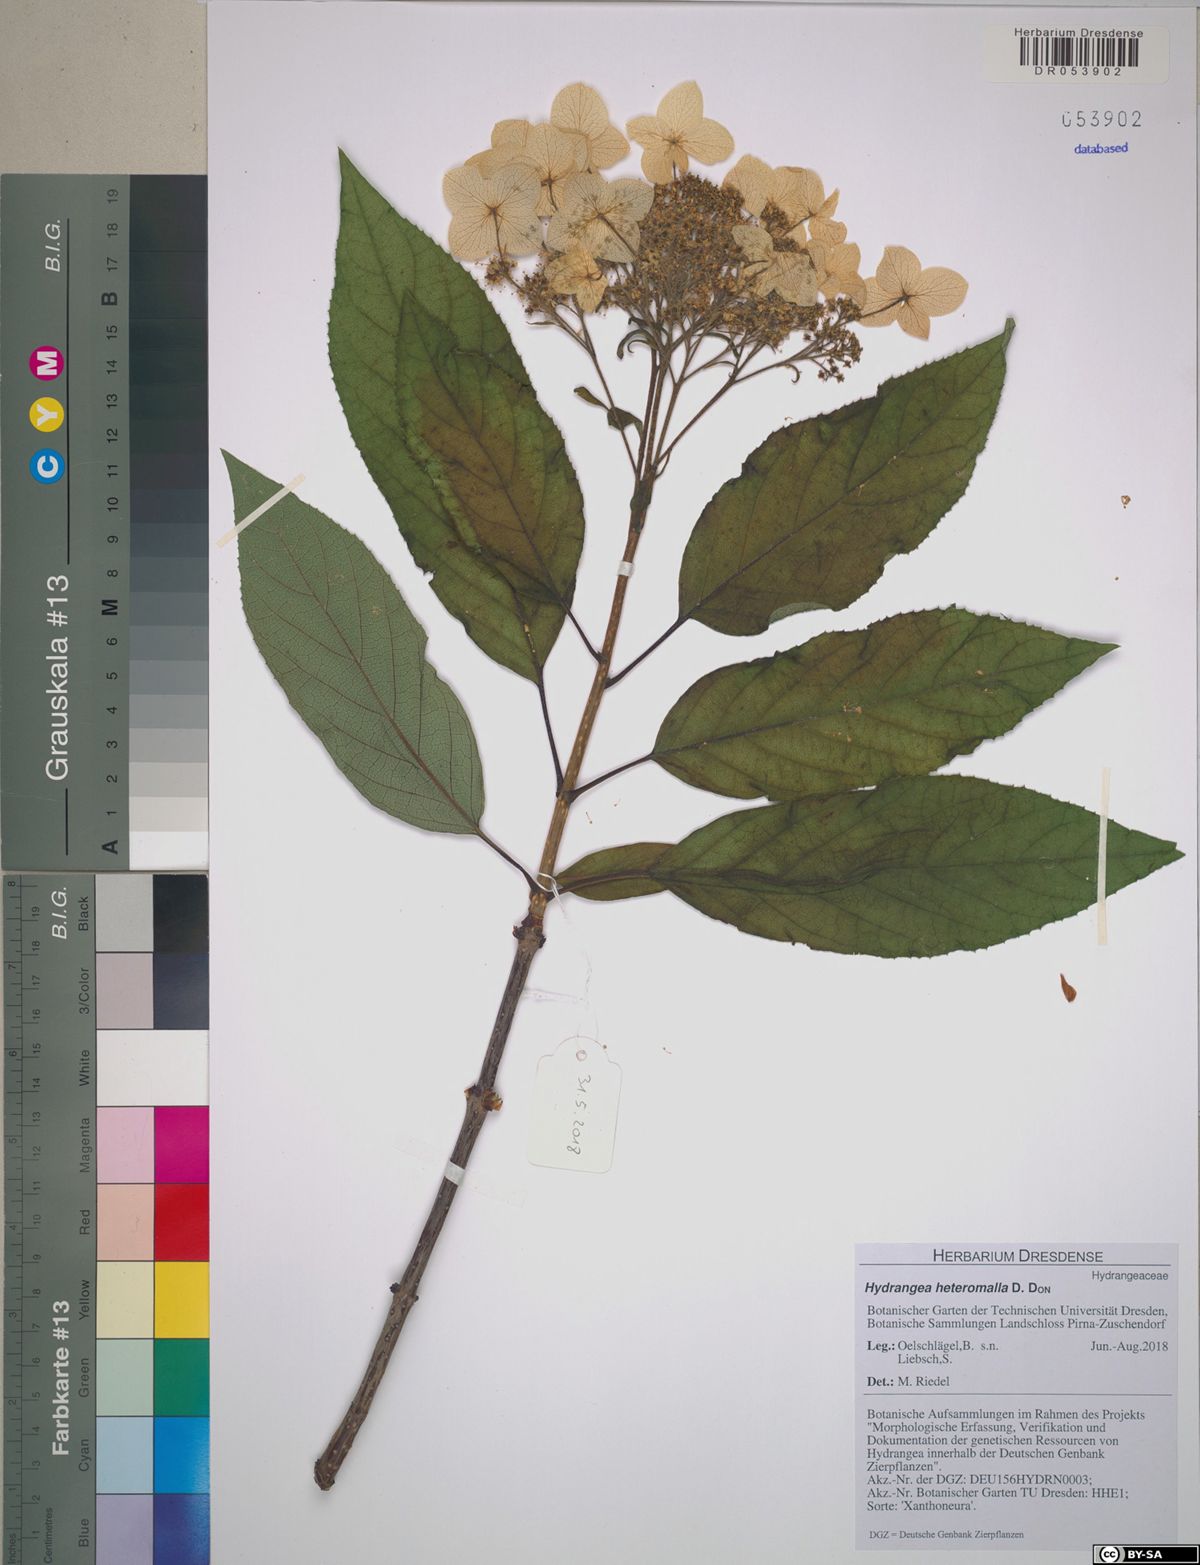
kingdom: Plantae
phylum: Tracheophyta
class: Magnoliopsida
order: Cornales
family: Hydrangeaceae
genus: Hydrangea
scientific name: Hydrangea heteromalla
